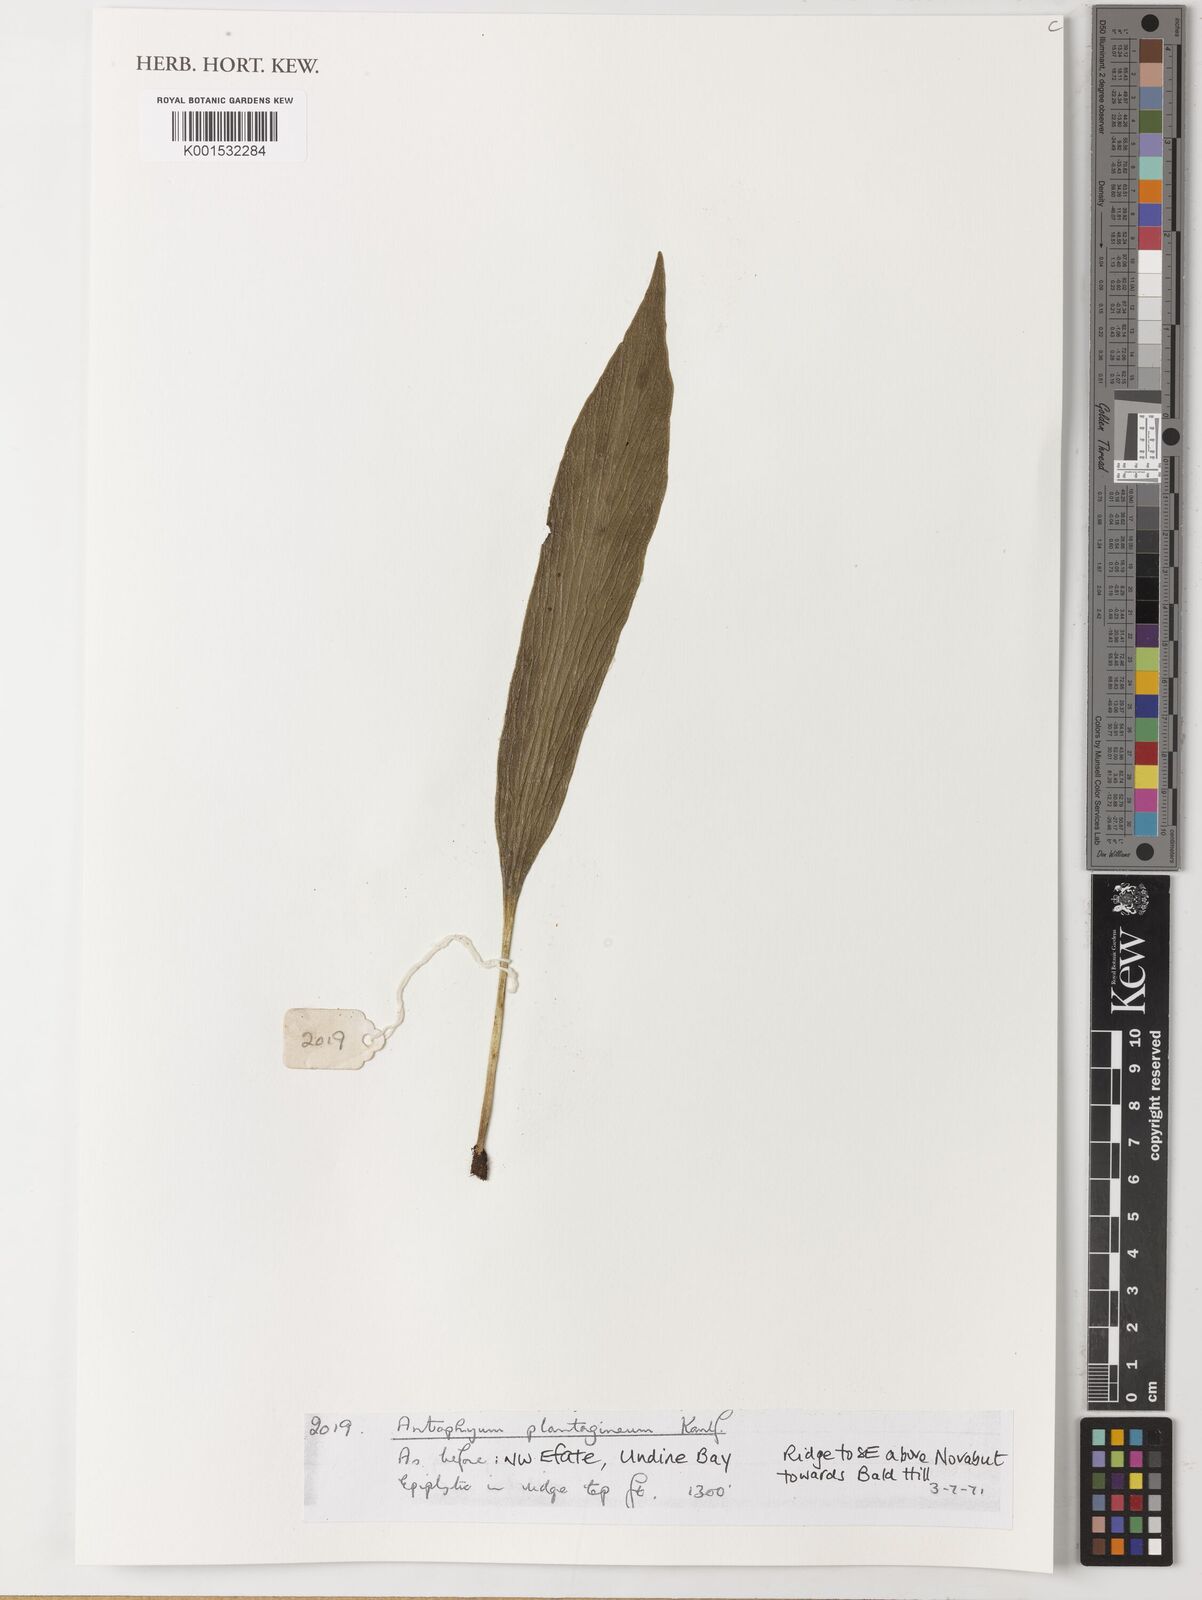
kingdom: Plantae
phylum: Tracheophyta
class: Polypodiopsida
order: Polypodiales
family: Pteridaceae
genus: Antrophyum
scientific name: Antrophyum plantagineum
